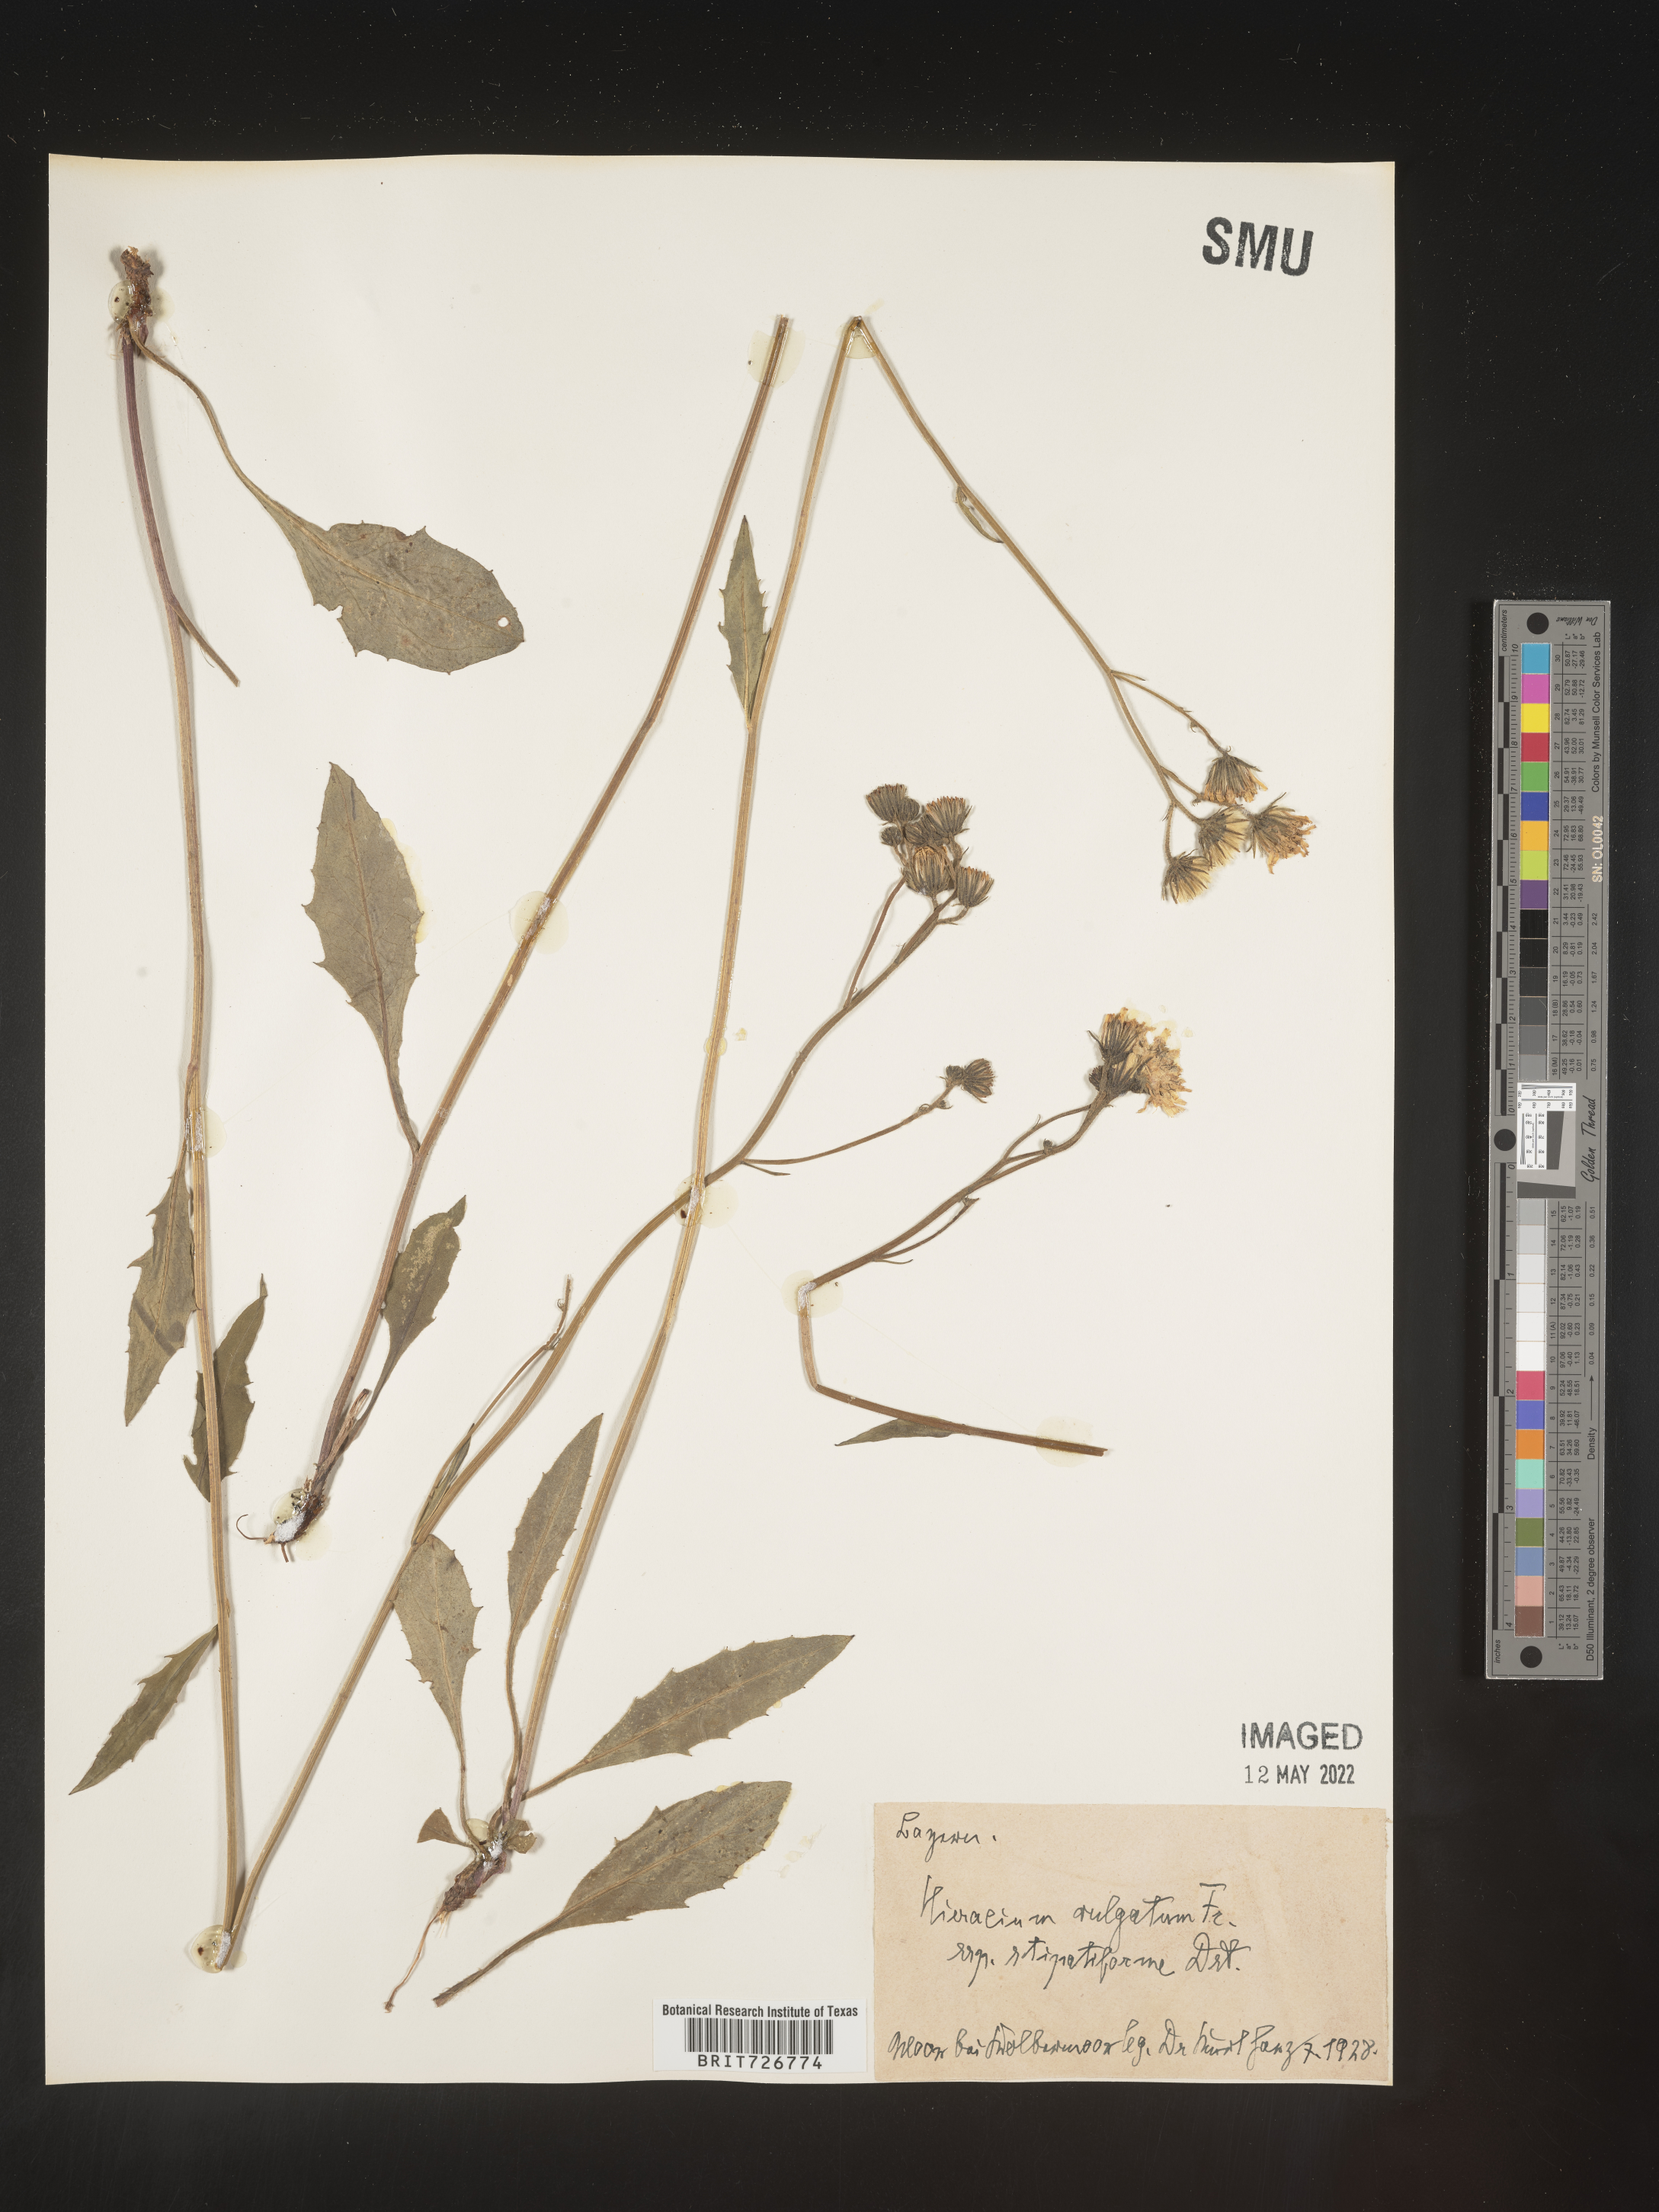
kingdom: Plantae
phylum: Tracheophyta
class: Magnoliopsida
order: Asterales
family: Asteraceae
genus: Hieracium
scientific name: Hieracium
